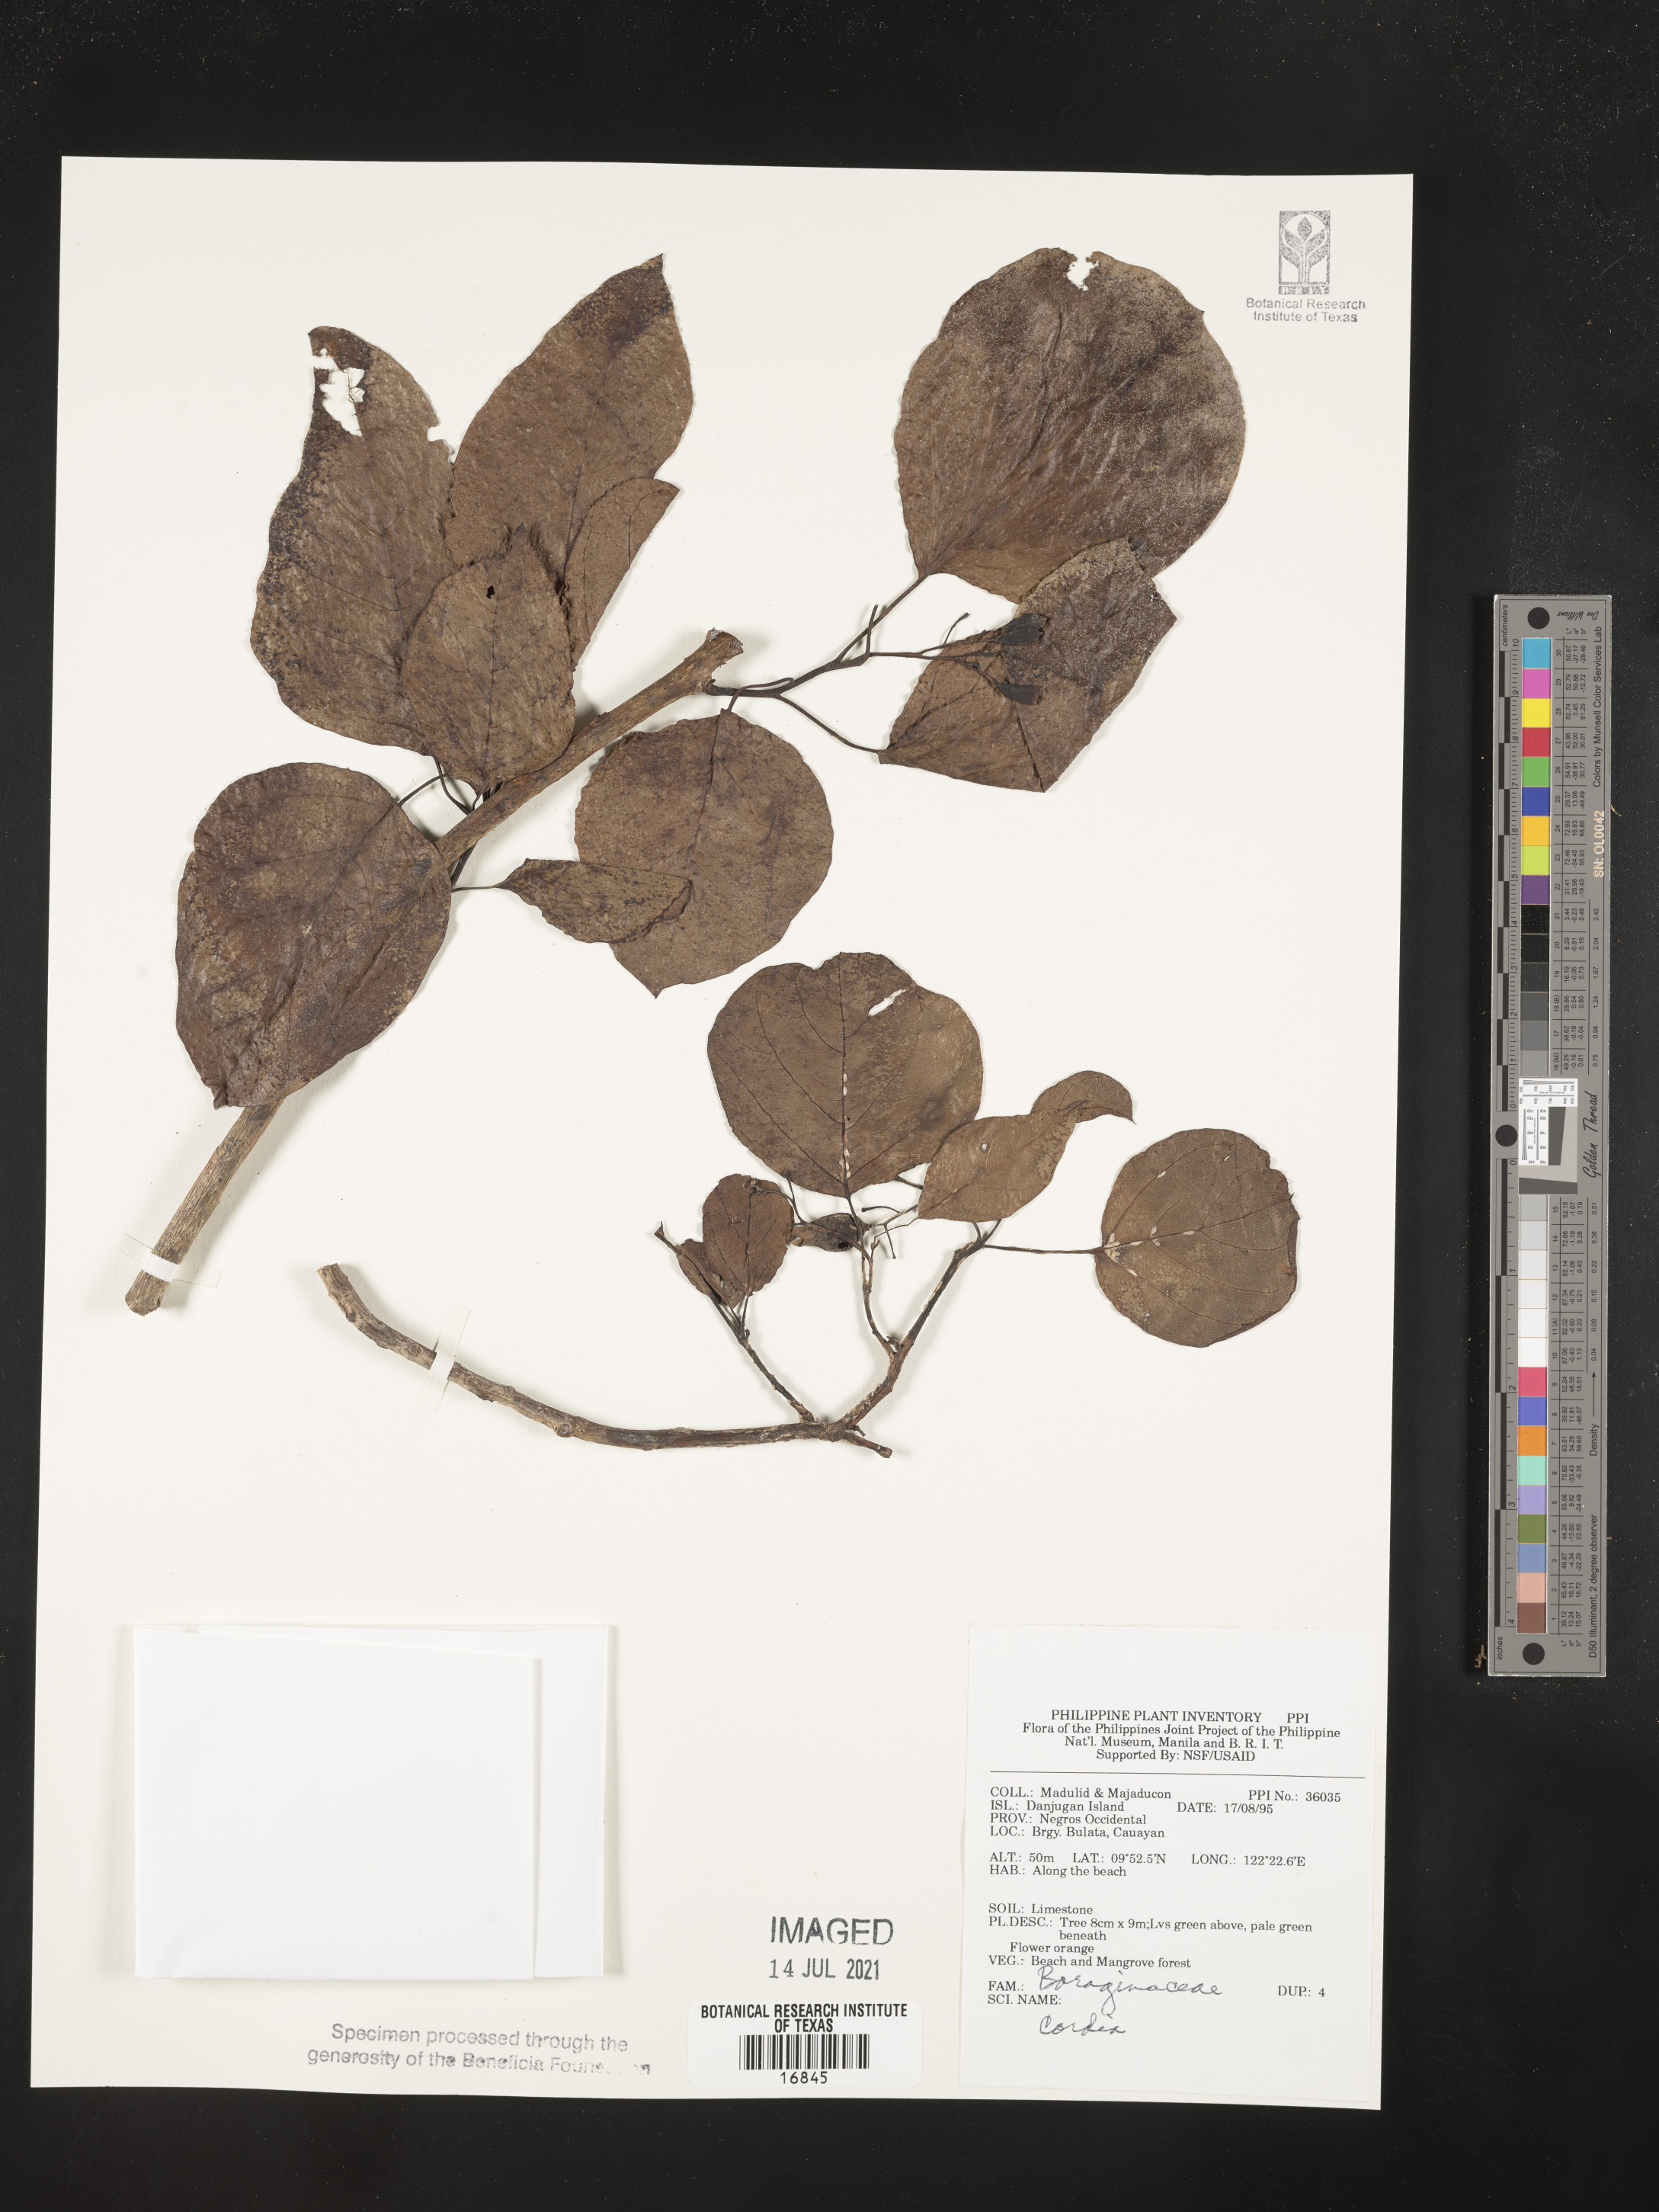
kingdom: Plantae
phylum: Tracheophyta
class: Magnoliopsida
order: Boraginales
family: Cordiaceae
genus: Cordia
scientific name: Cordia
